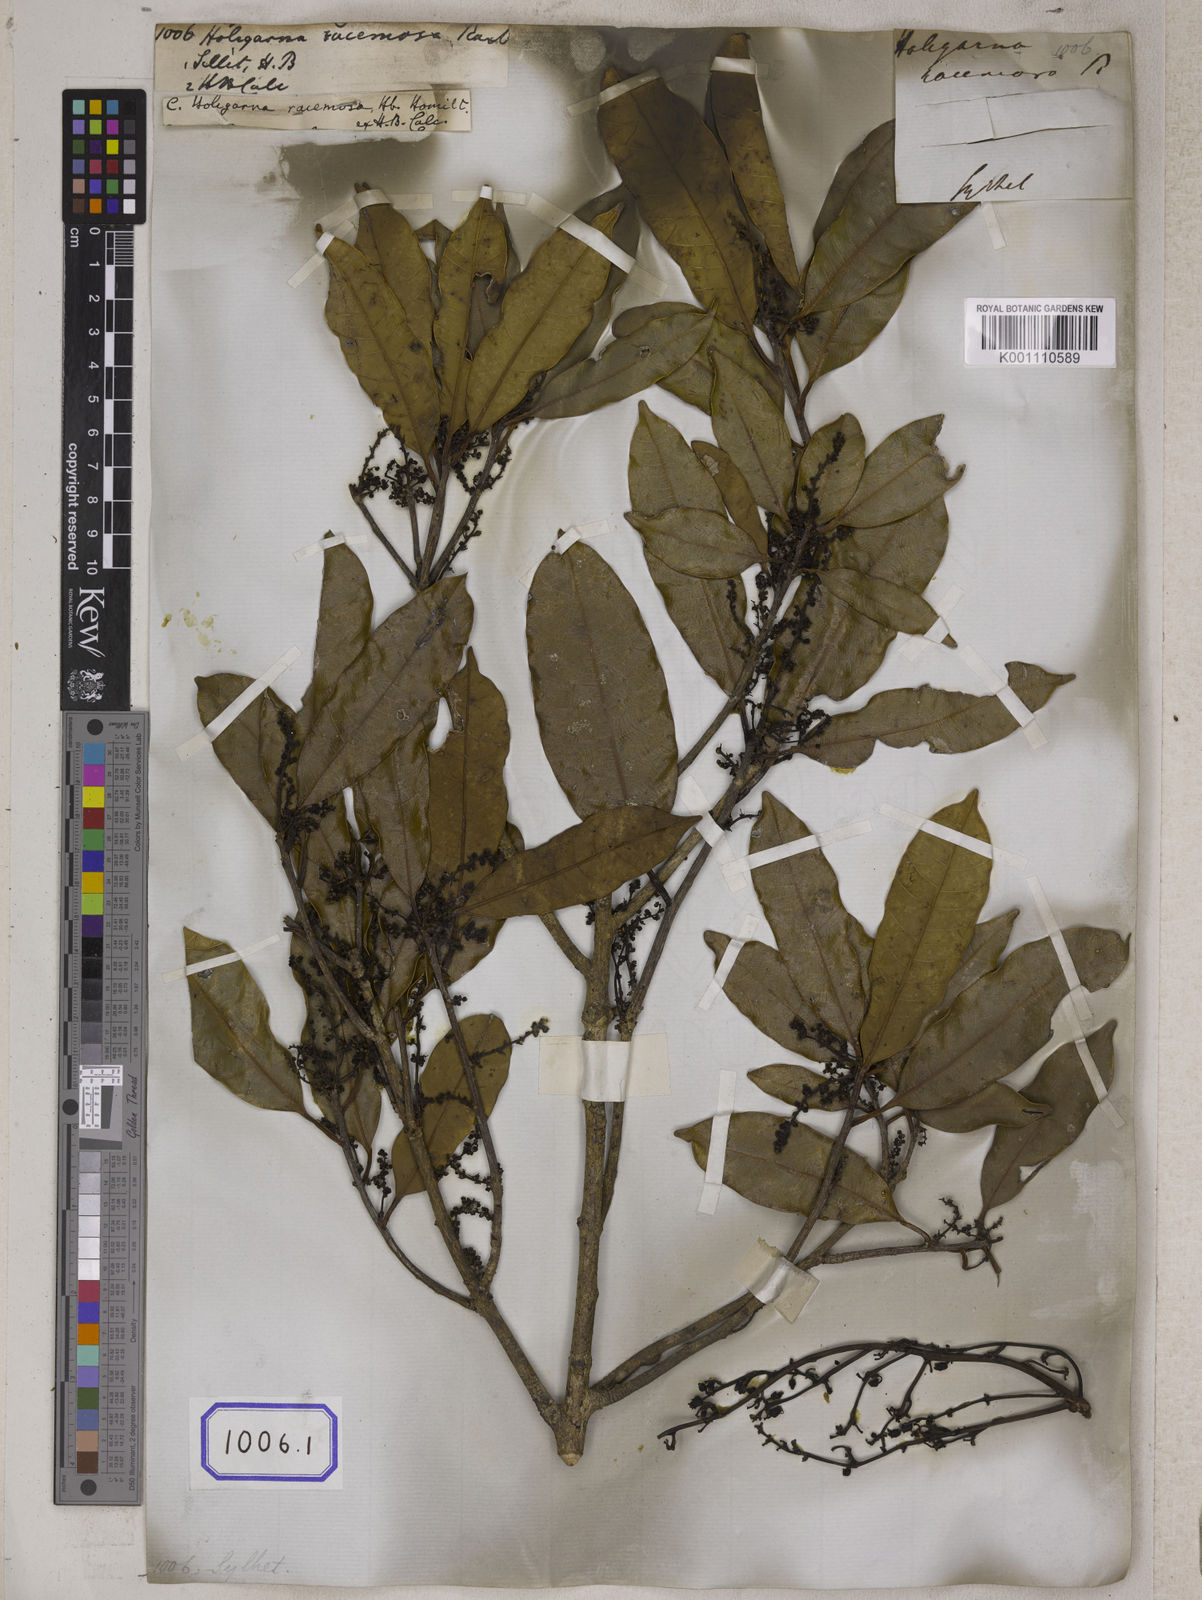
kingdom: Plantae
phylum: Tracheophyta
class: Magnoliopsida
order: Sapindales
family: Anacardiaceae
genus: Drimycarpus
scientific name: Drimycarpus racemosus
